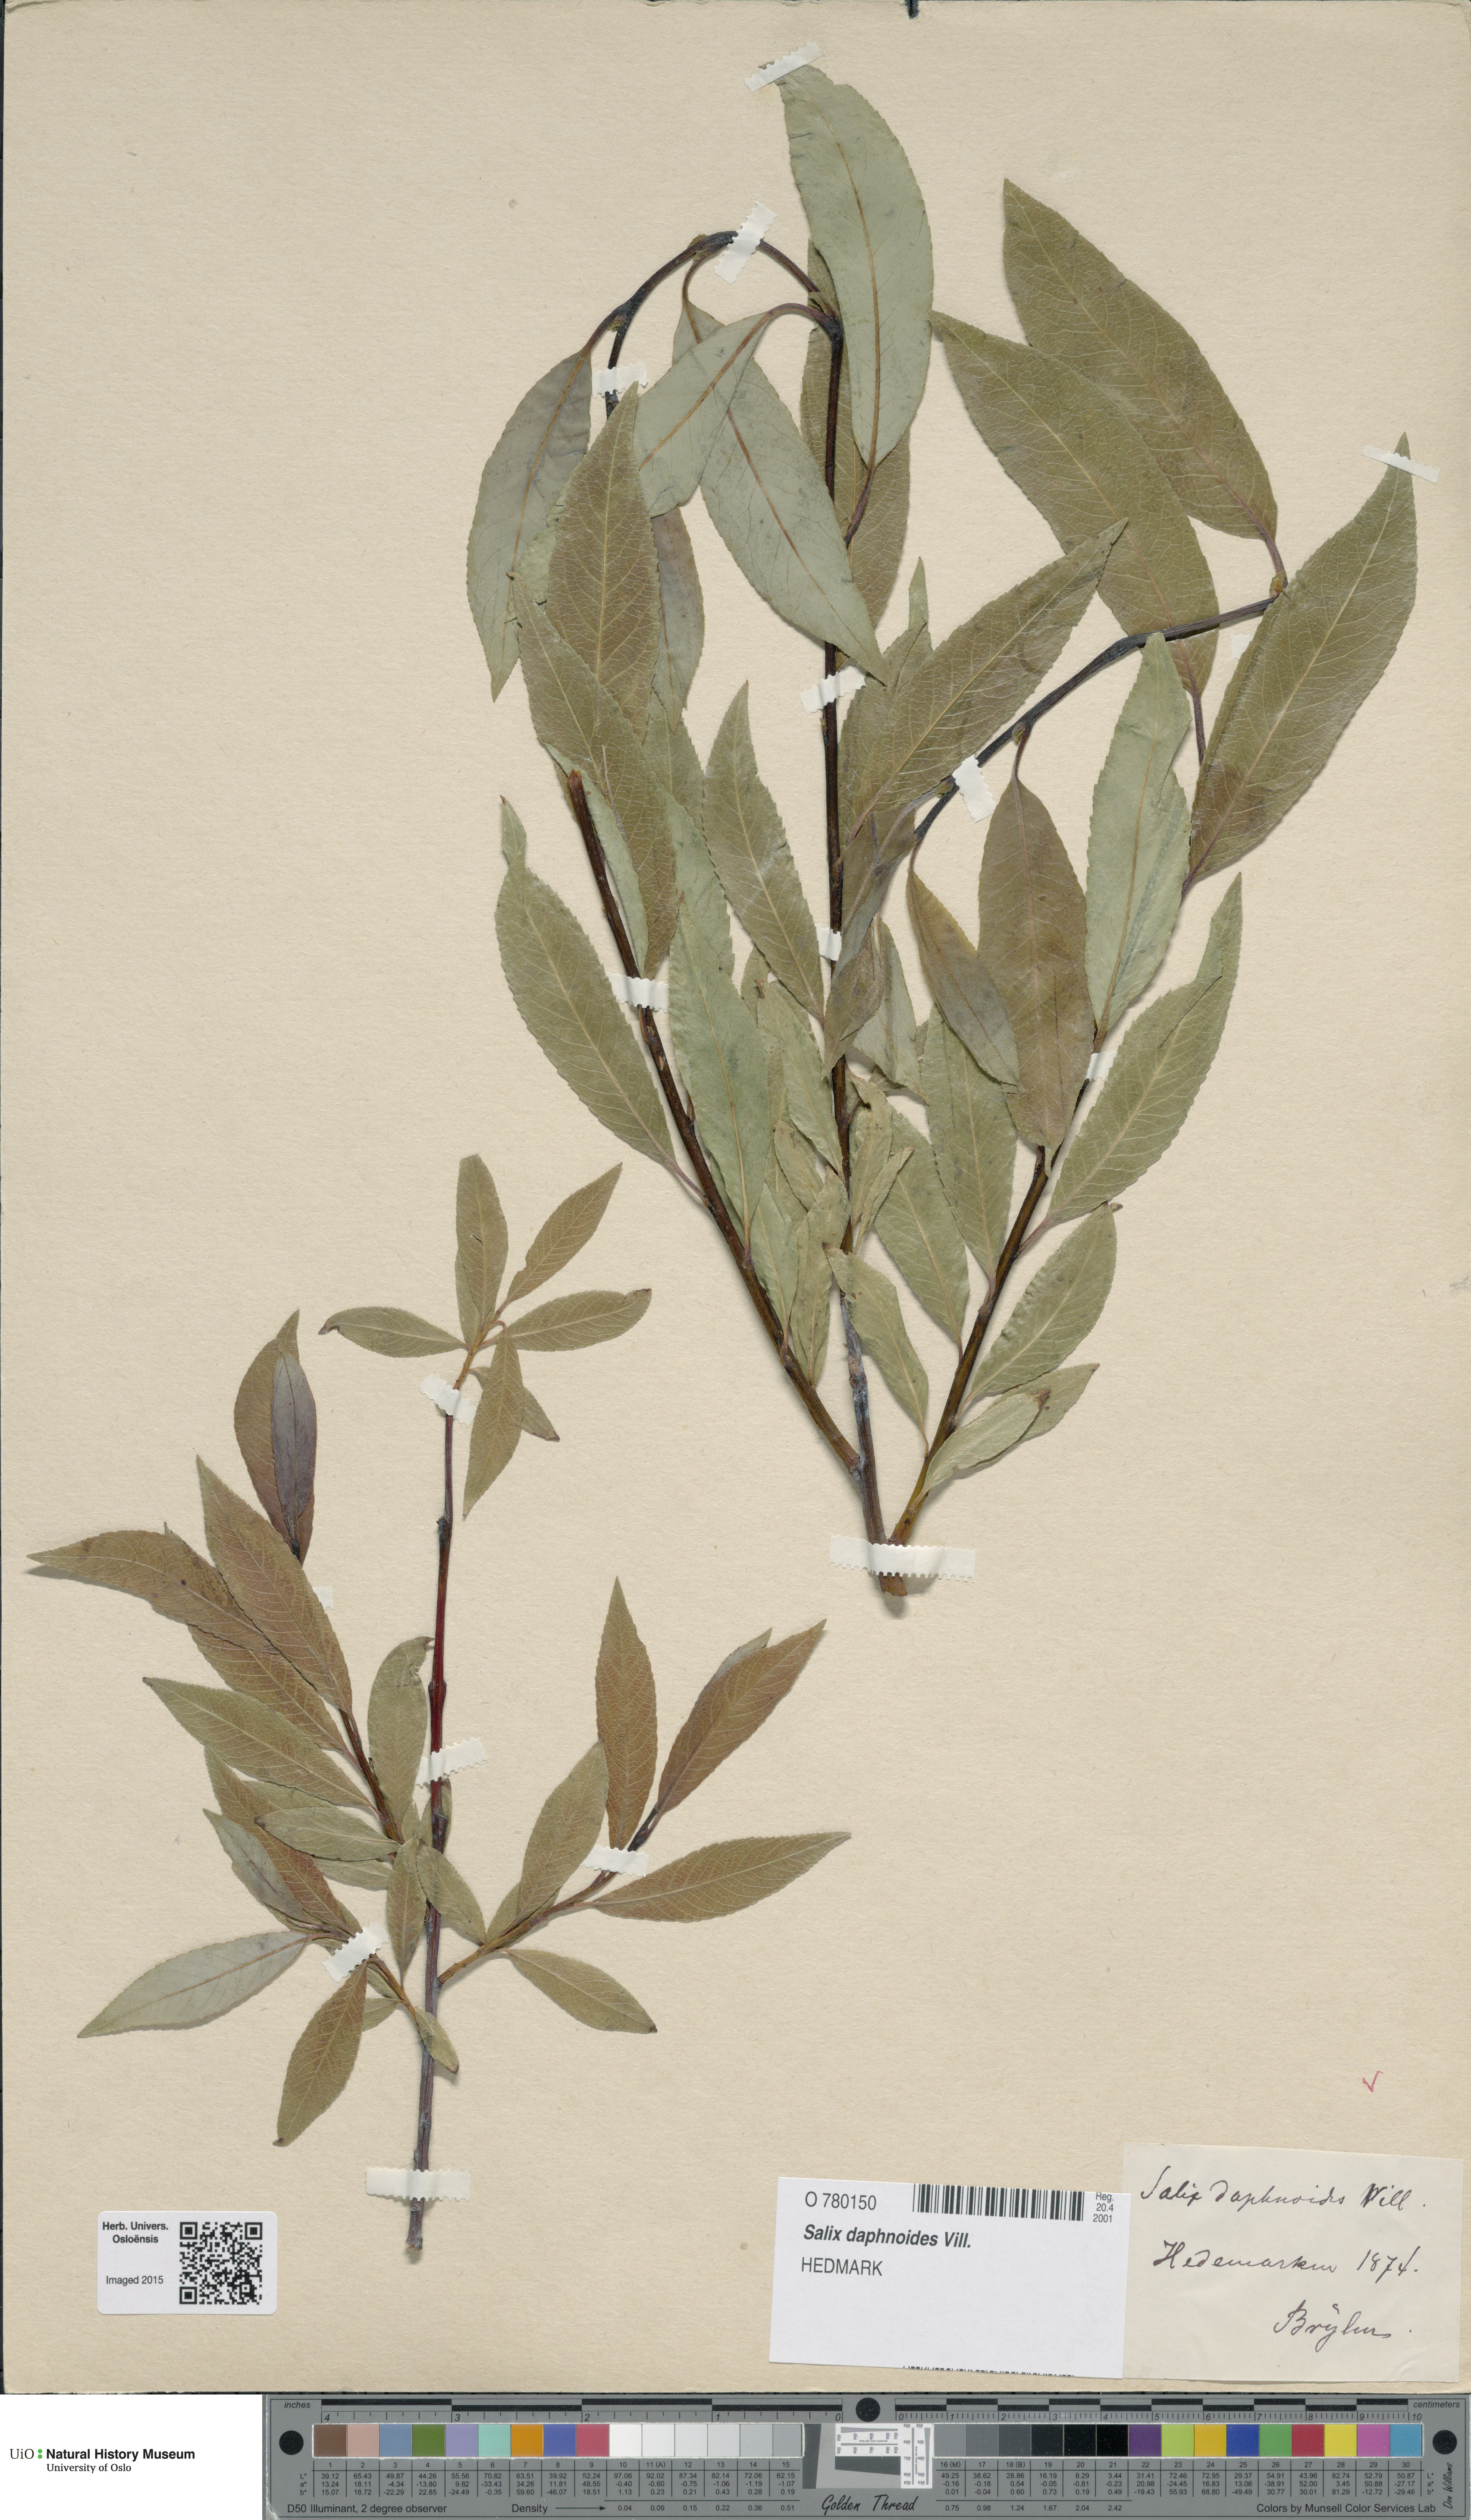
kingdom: Plantae
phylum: Tracheophyta
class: Magnoliopsida
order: Malpighiales
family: Salicaceae
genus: Salix
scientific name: Salix daphnoides
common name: European violet-willow
